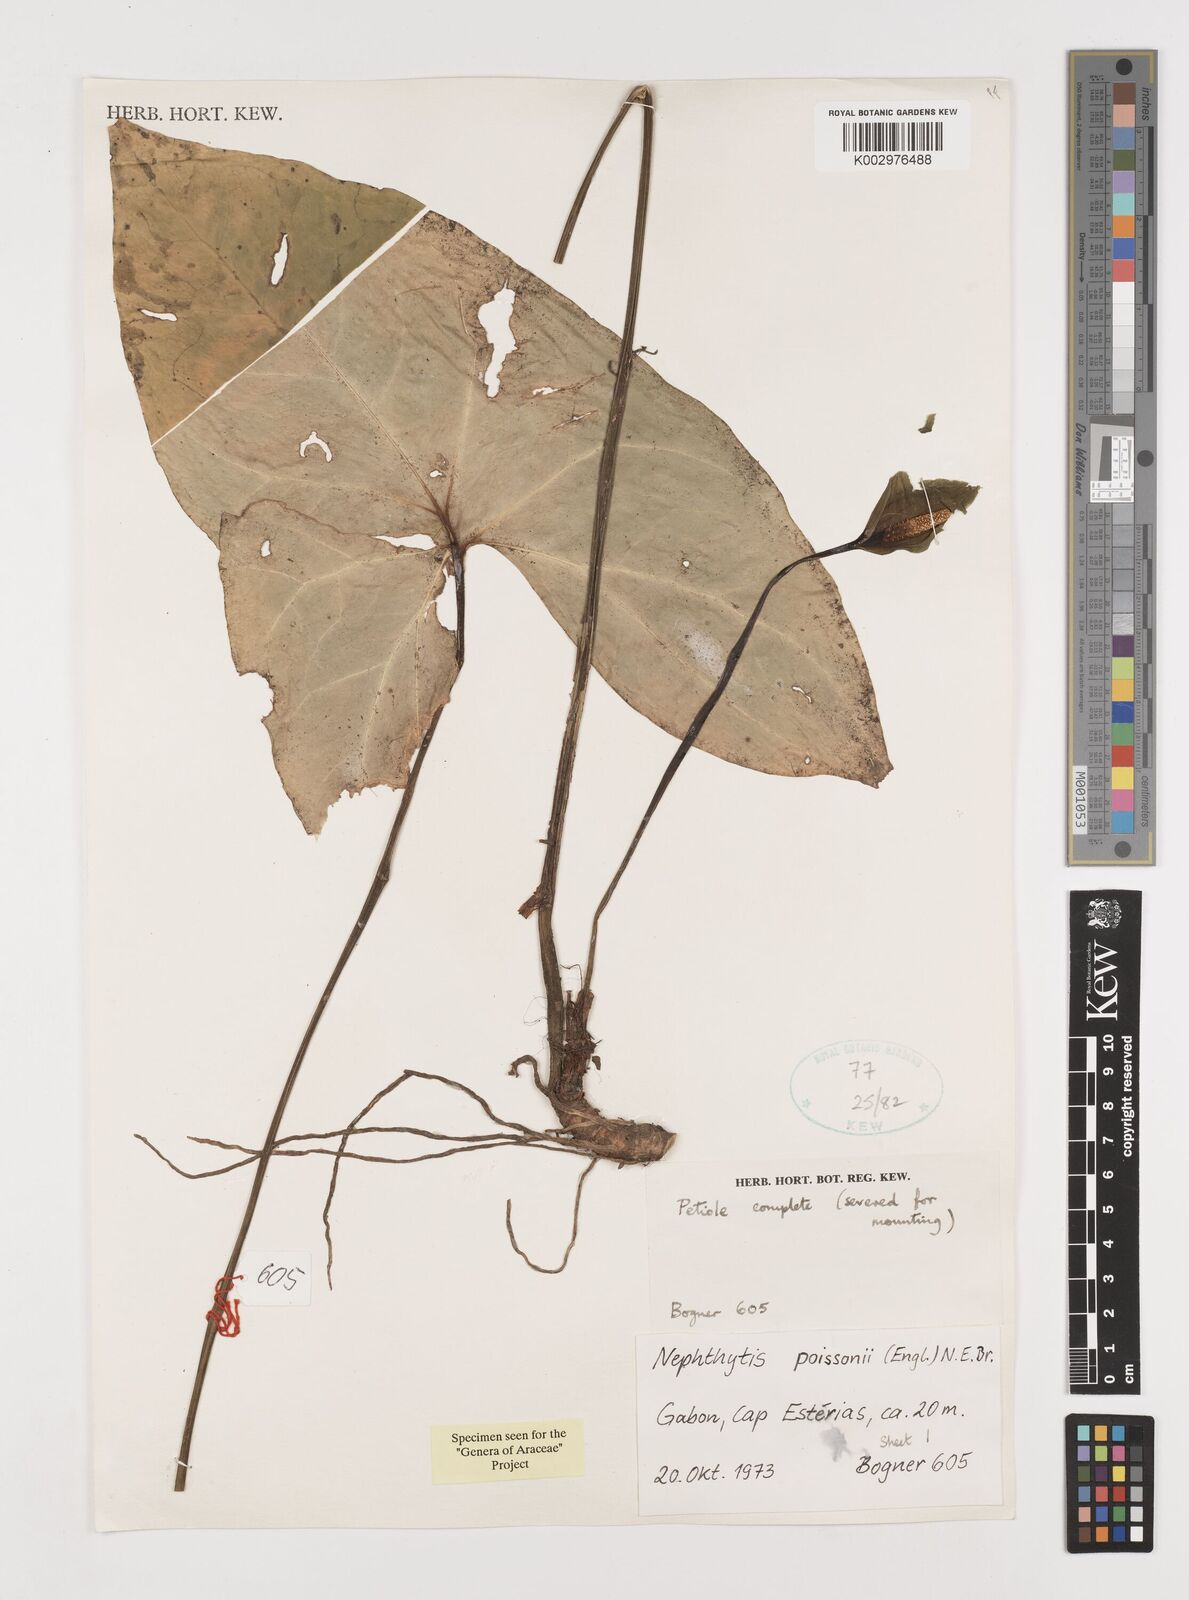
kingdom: Plantae
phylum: Tracheophyta
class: Liliopsida
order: Alismatales
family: Araceae
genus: Nephthytis
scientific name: Nephthytis poissonii
